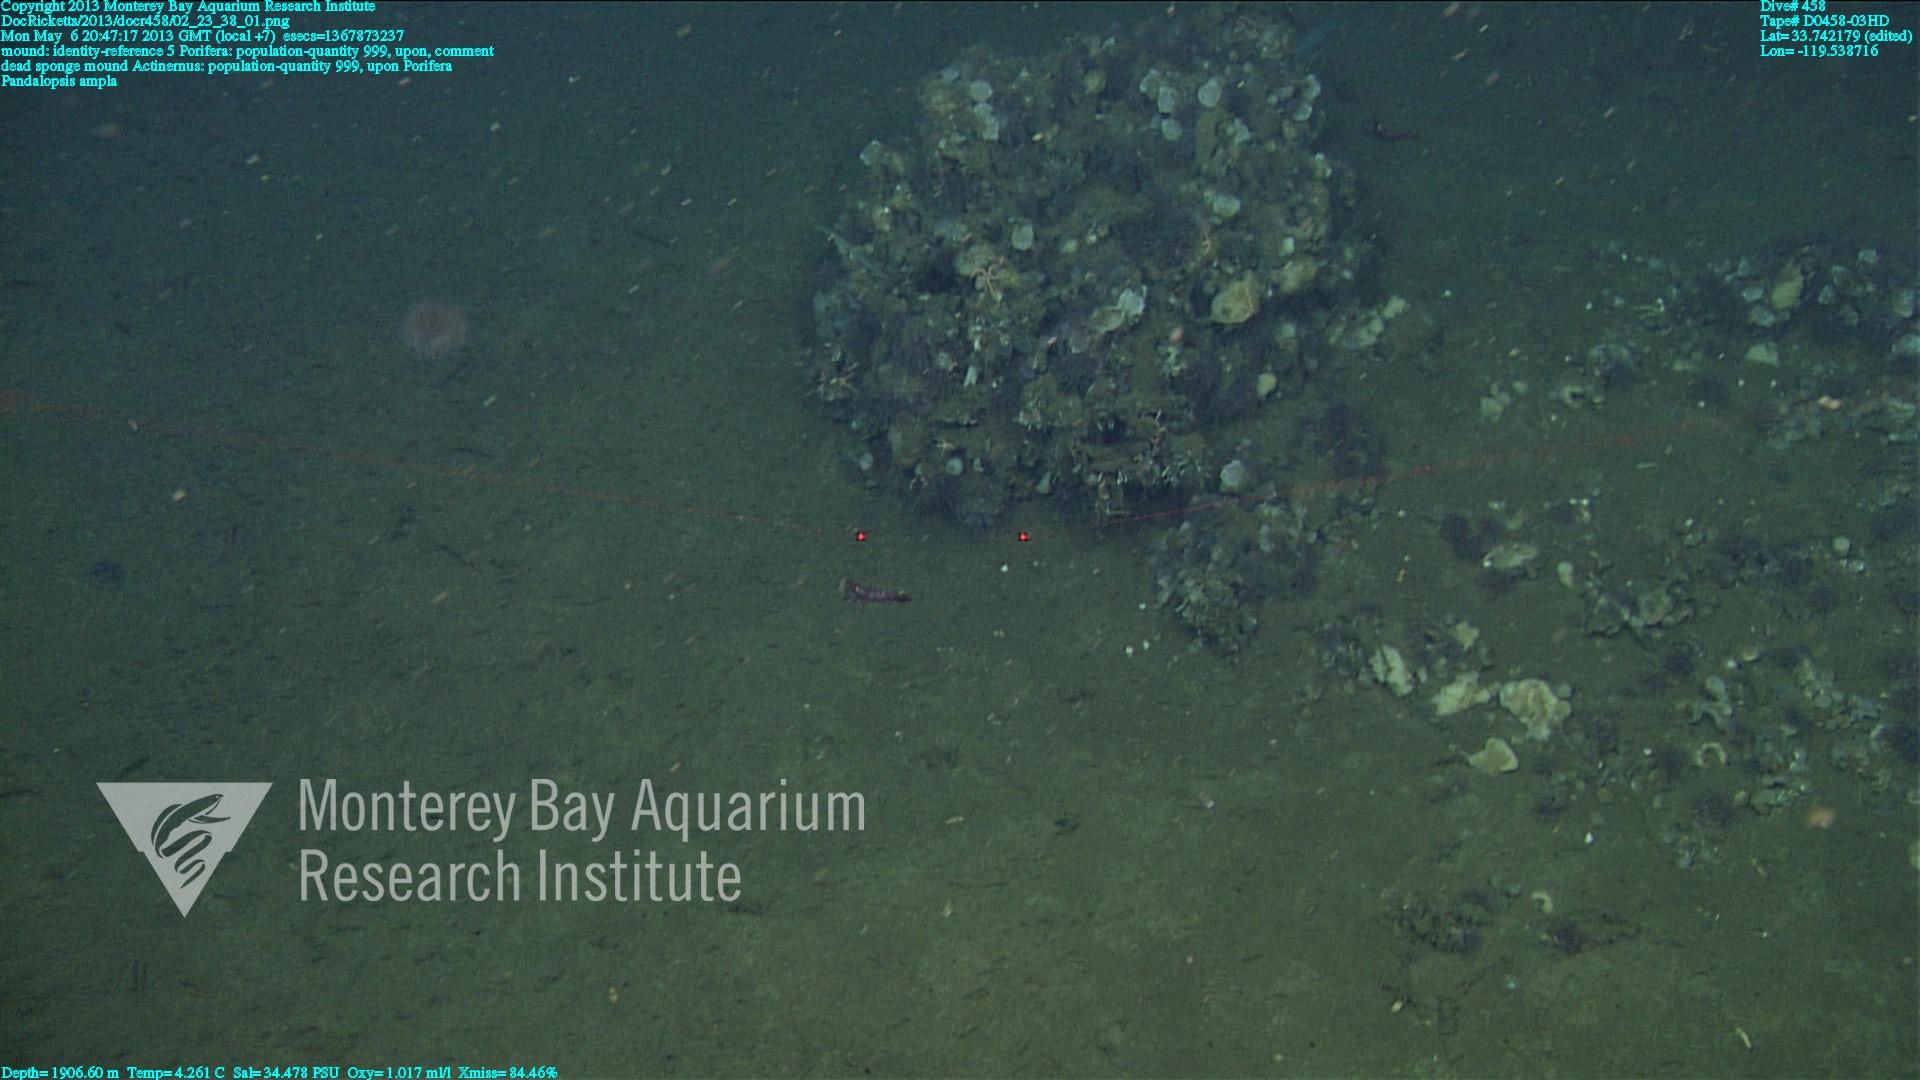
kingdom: Animalia
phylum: Porifera
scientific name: Porifera
